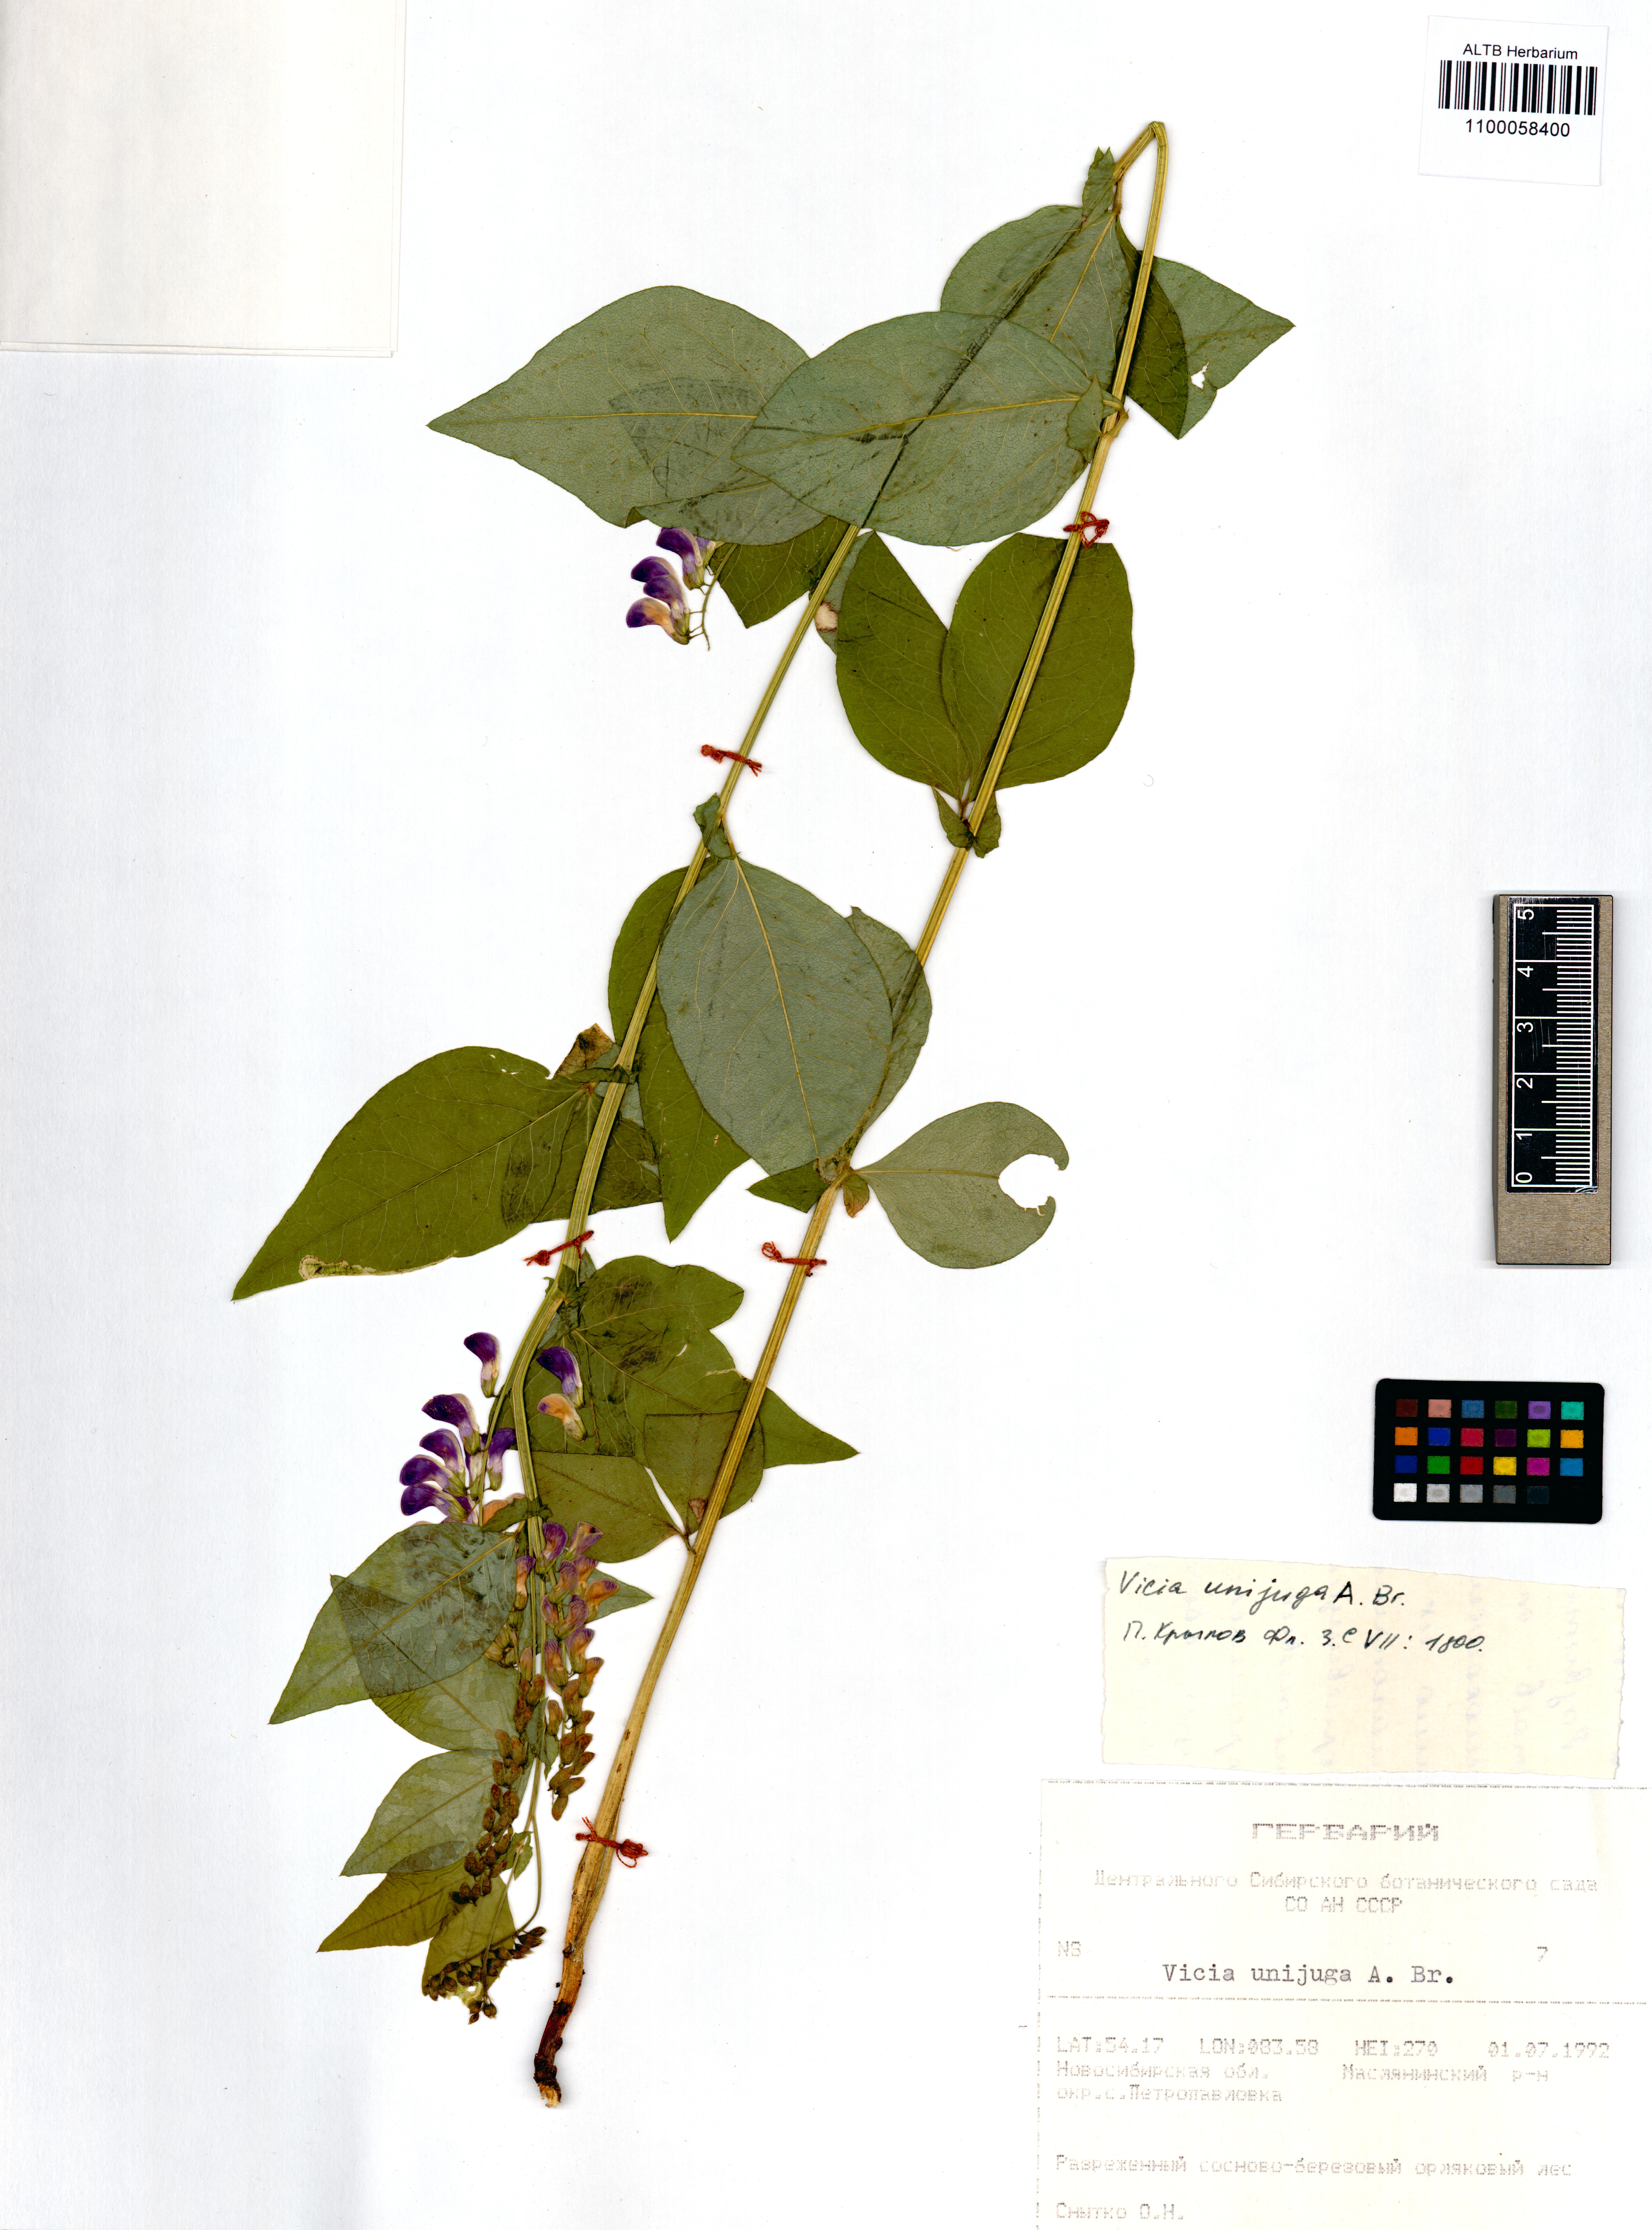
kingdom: Plantae
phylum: Tracheophyta
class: Magnoliopsida
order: Fabales
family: Fabaceae
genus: Vicia
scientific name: Vicia unijuga
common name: Two-leaf vetch
